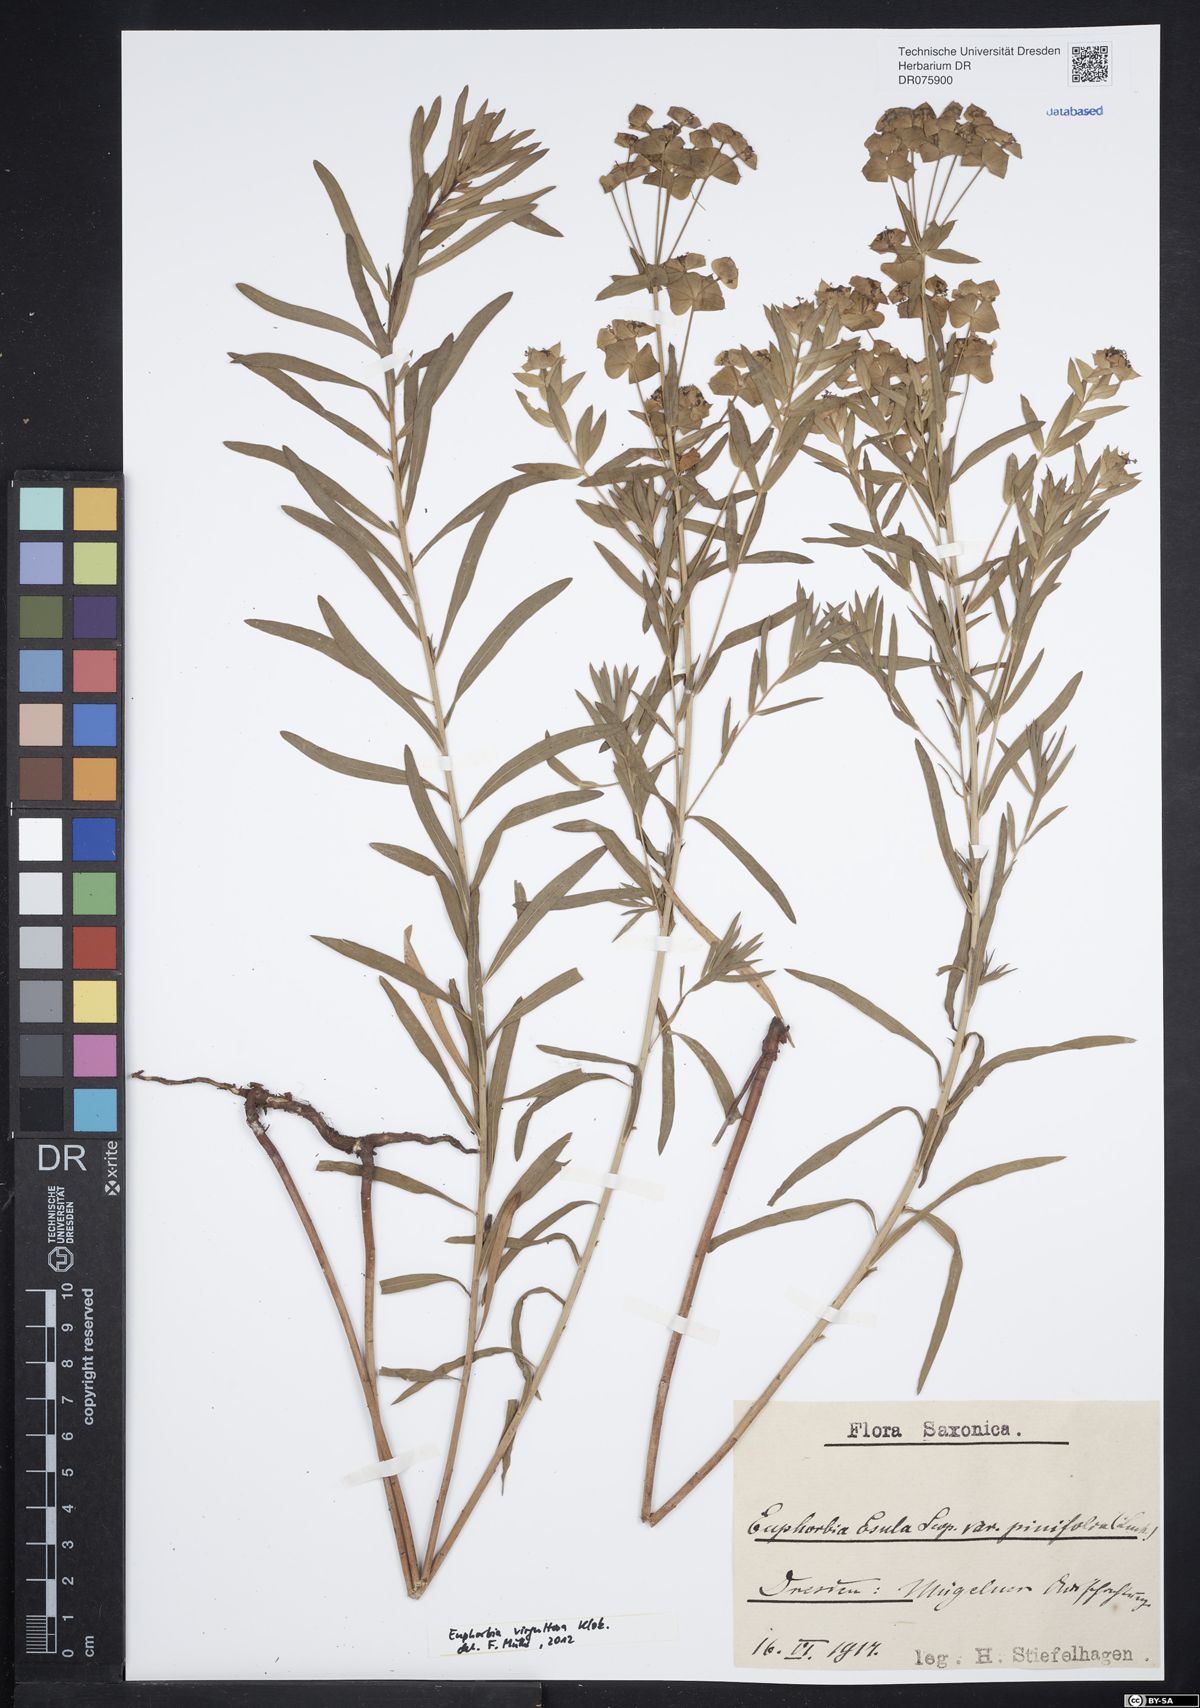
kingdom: Plantae
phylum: Tracheophyta
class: Magnoliopsida
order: Malpighiales
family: Euphorbiaceae
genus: Euphorbia
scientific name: Euphorbia saratoi
